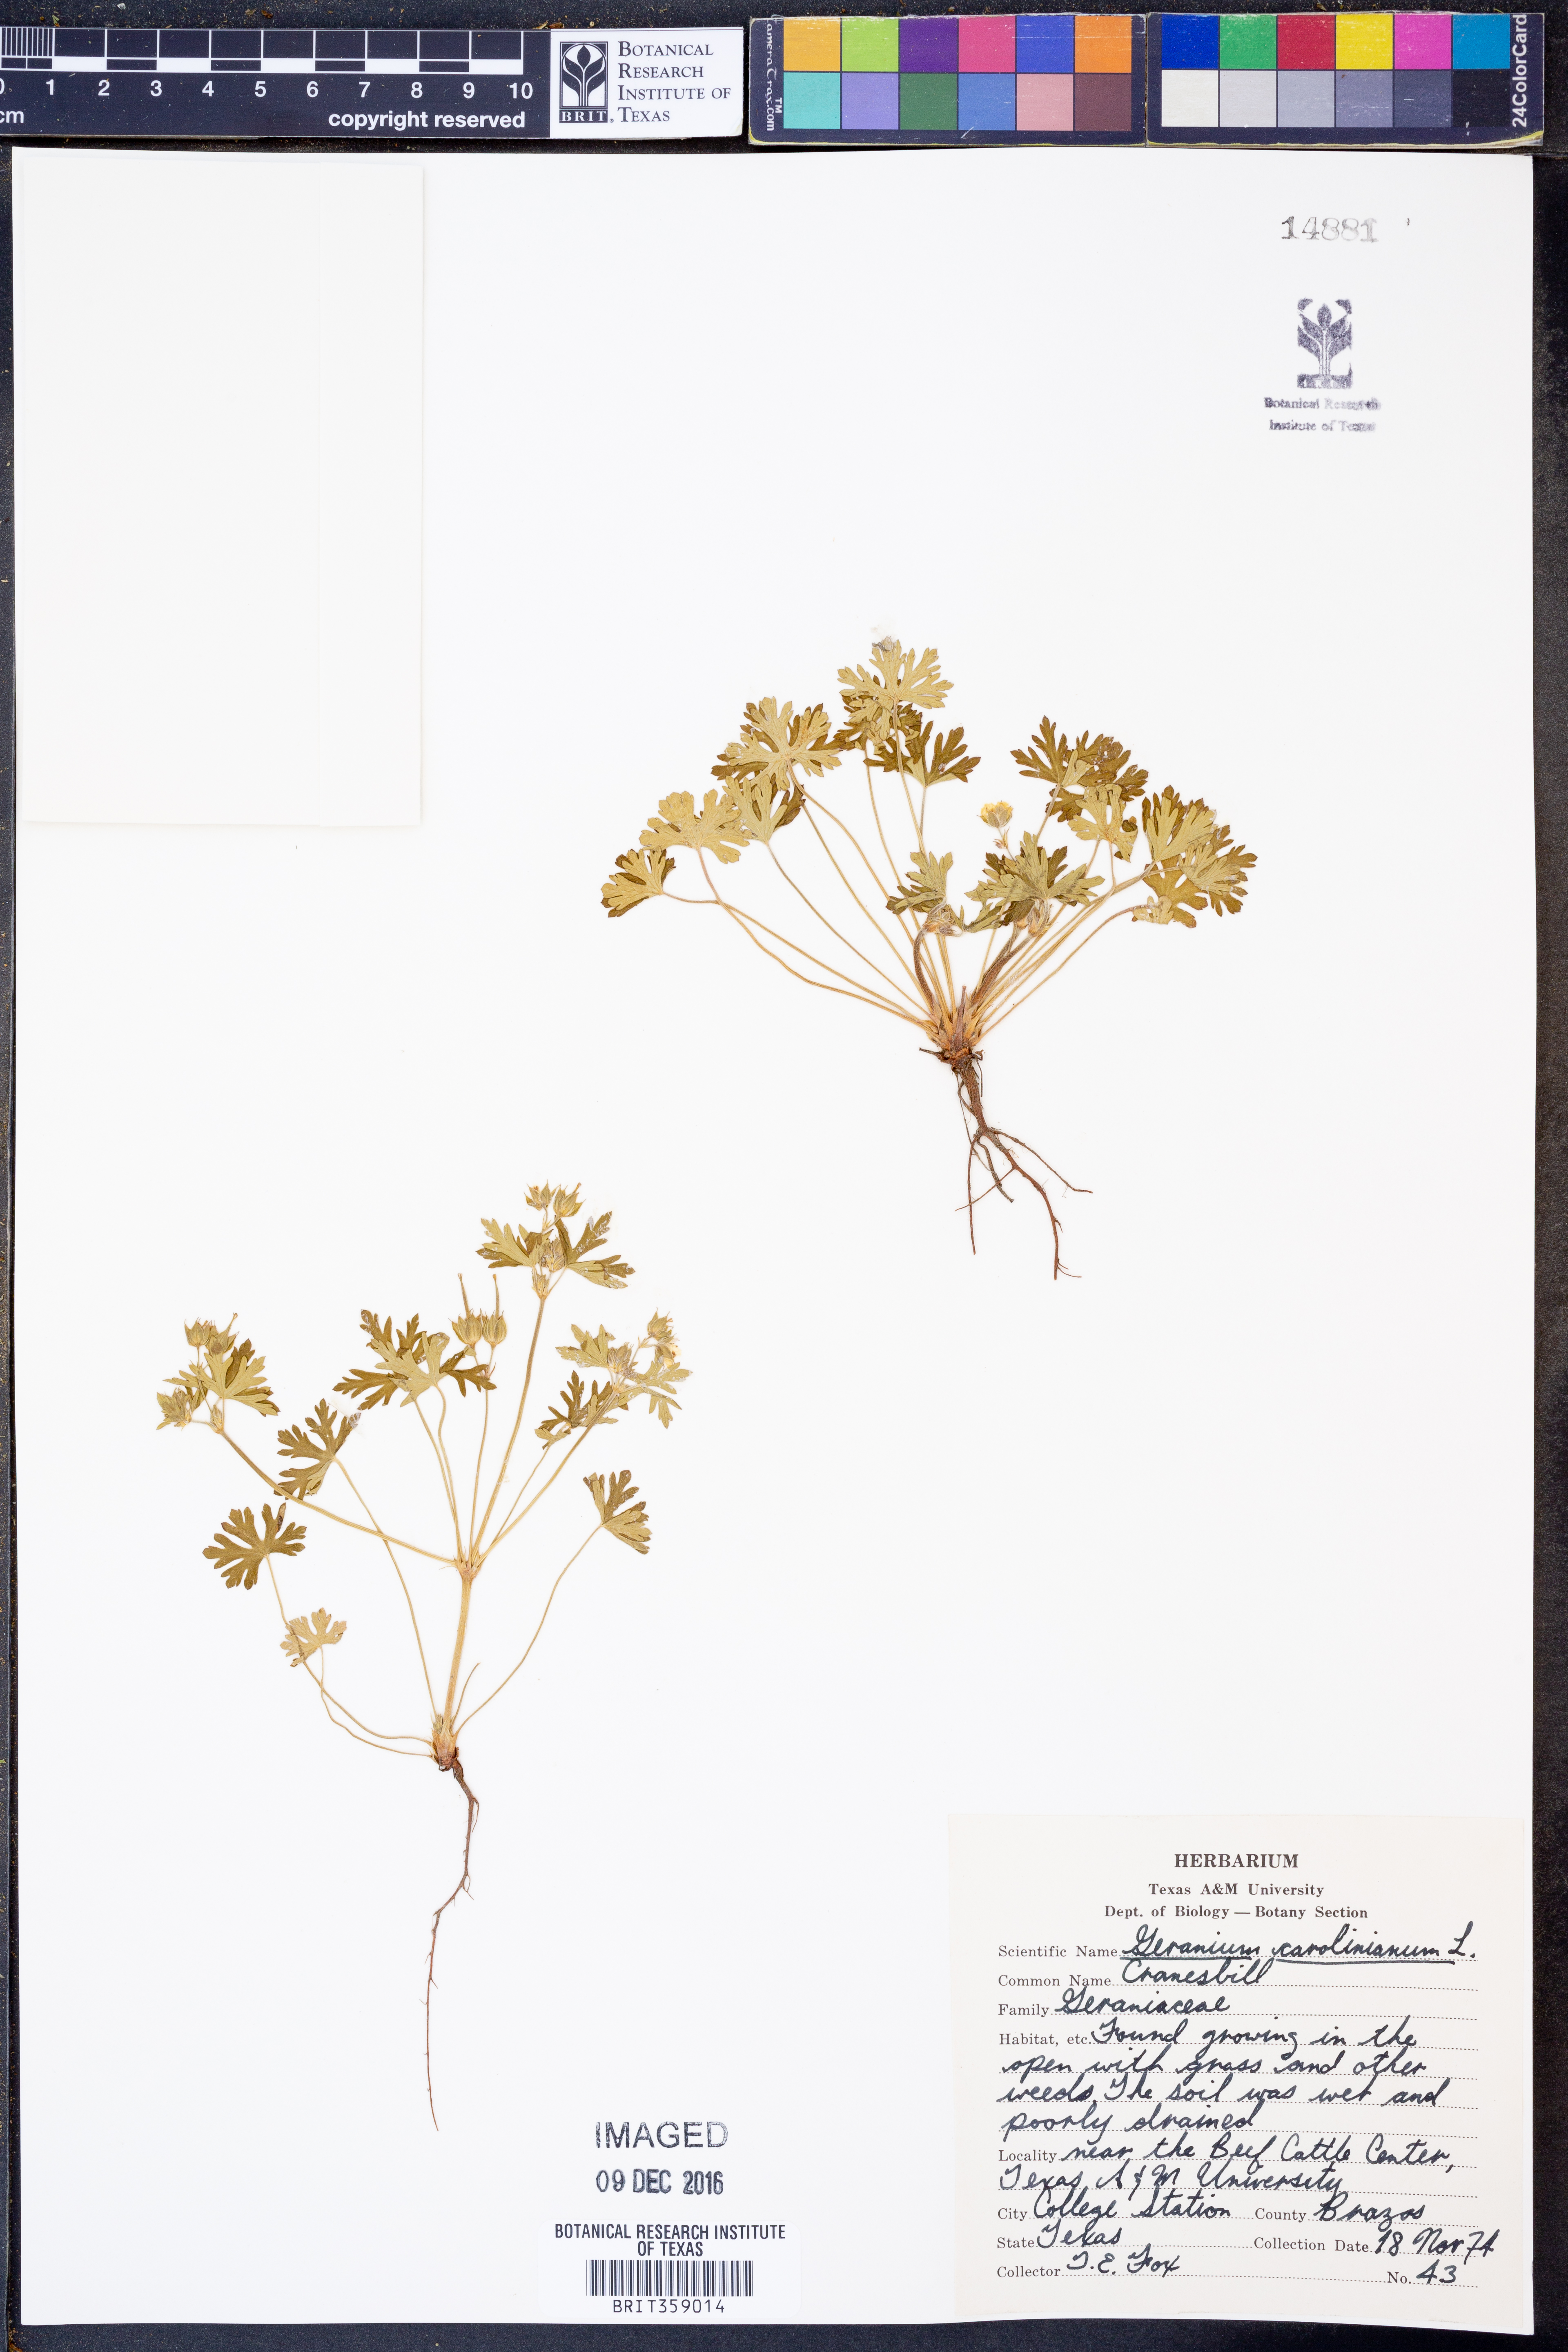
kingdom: Plantae
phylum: Tracheophyta
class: Magnoliopsida
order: Geraniales
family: Geraniaceae
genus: Geranium
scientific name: Geranium carolinianum
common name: Carolina crane's-bill
